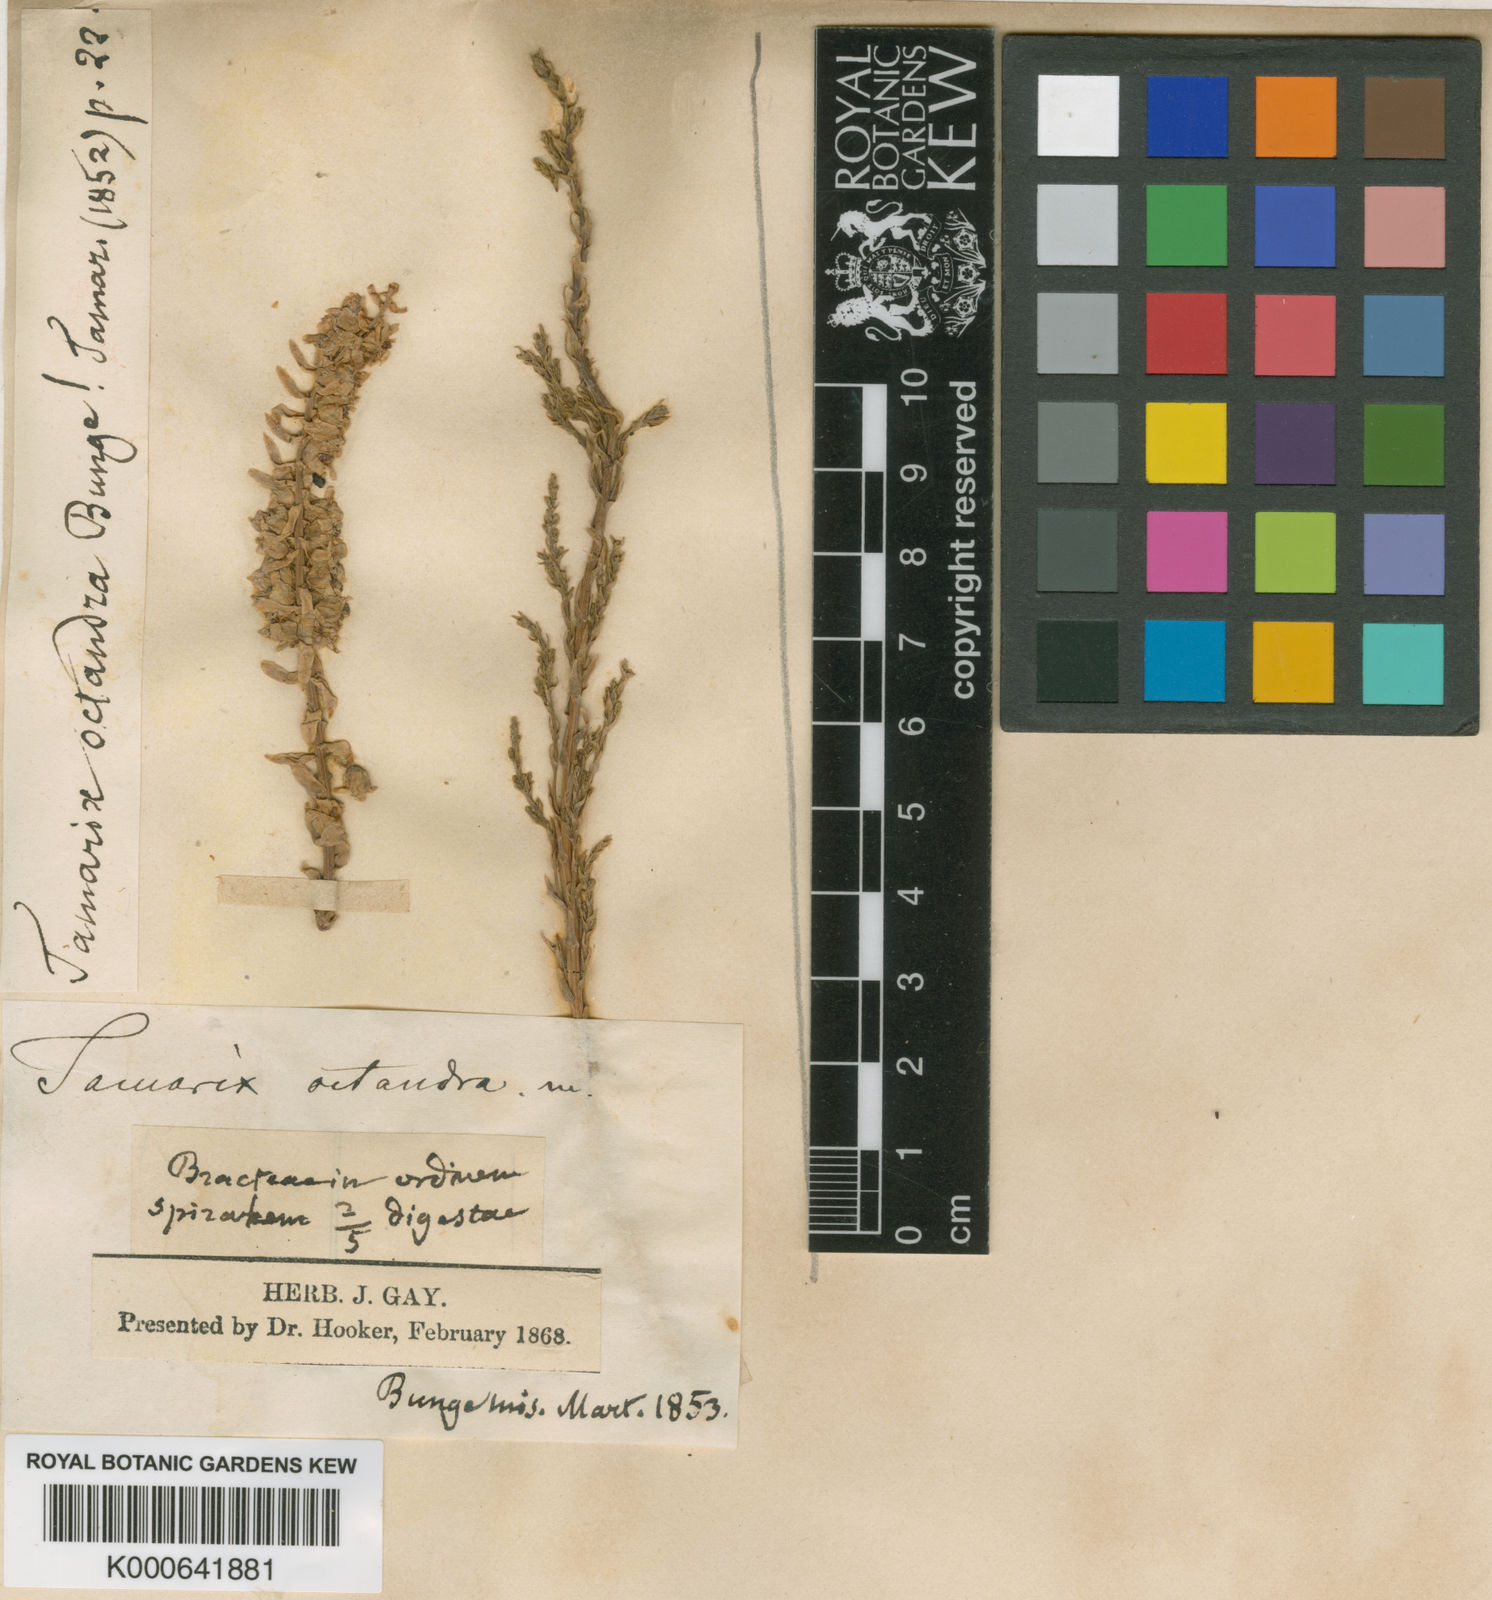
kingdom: Plantae
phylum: Tracheophyta
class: Magnoliopsida
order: Caryophyllales
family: Tamaricaceae
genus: Tamarix
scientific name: Tamarix octandra
